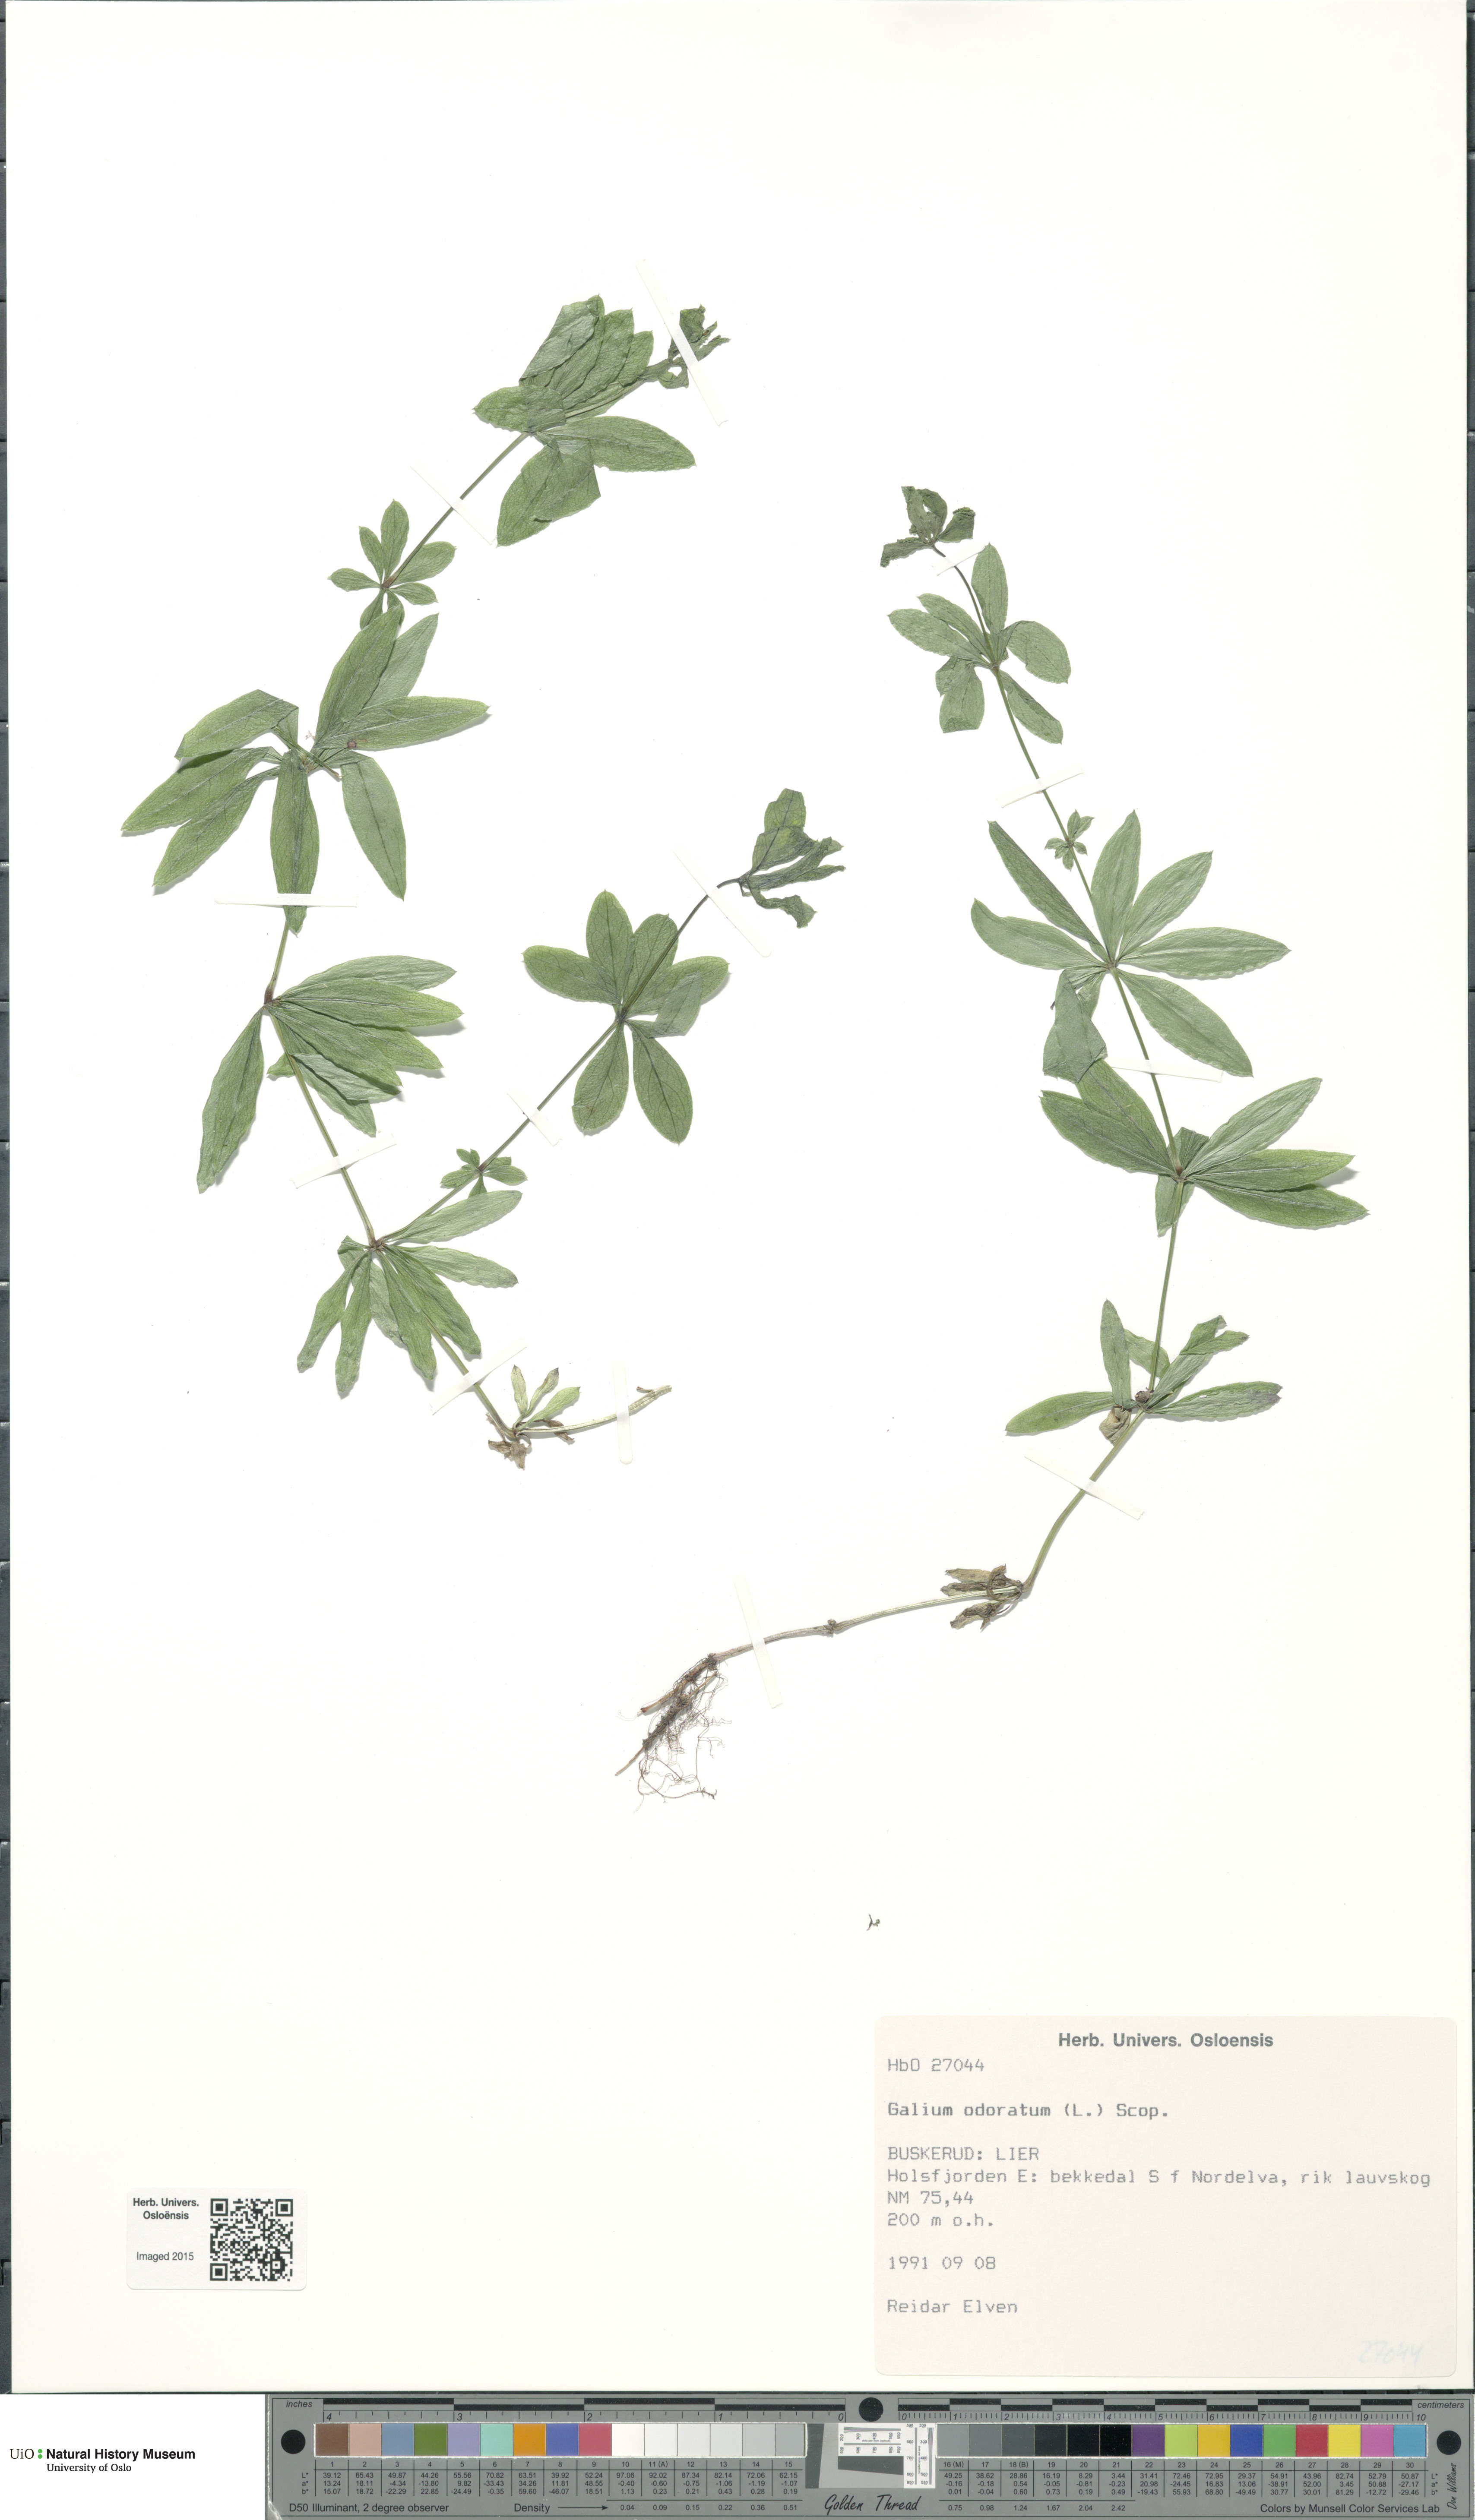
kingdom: Plantae
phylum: Tracheophyta
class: Magnoliopsida
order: Gentianales
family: Rubiaceae
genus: Galium
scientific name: Galium odoratum
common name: Sweet woodruff
